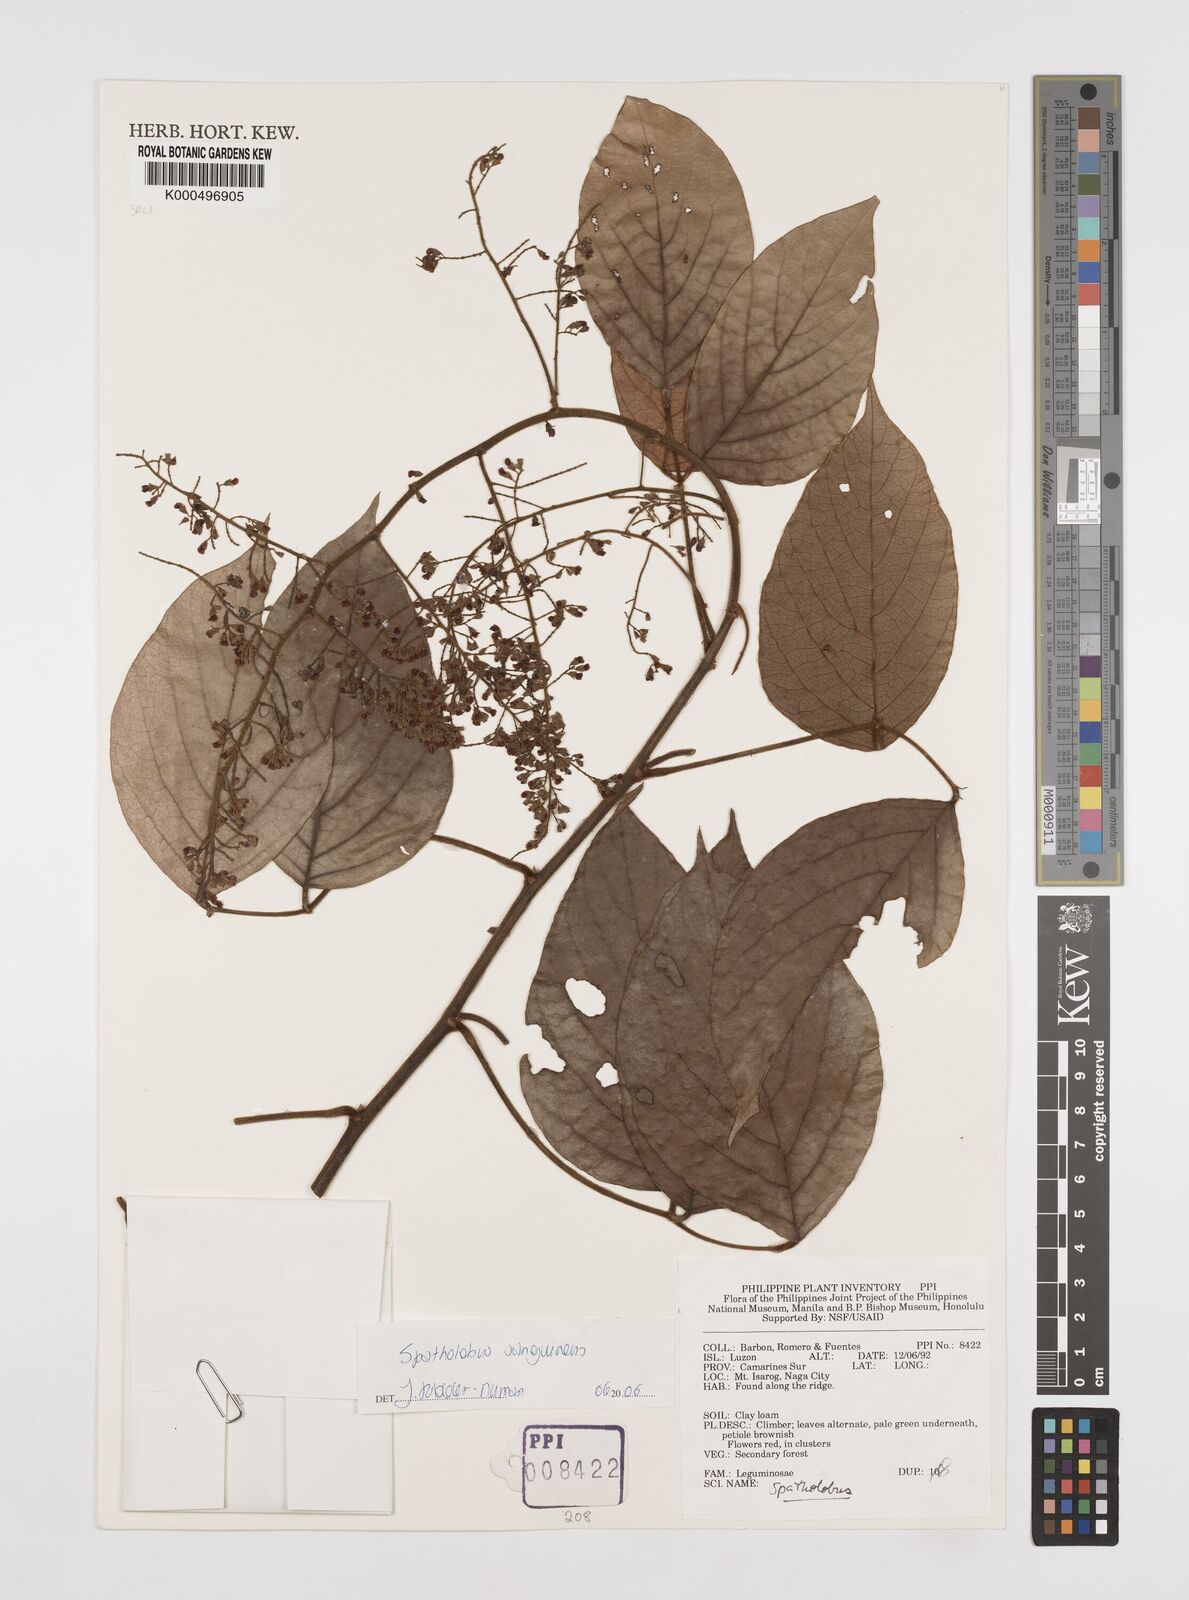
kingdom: Plantae
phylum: Tracheophyta
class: Magnoliopsida
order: Fabales
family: Fabaceae
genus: Spatholobus
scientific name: Spatholobus
